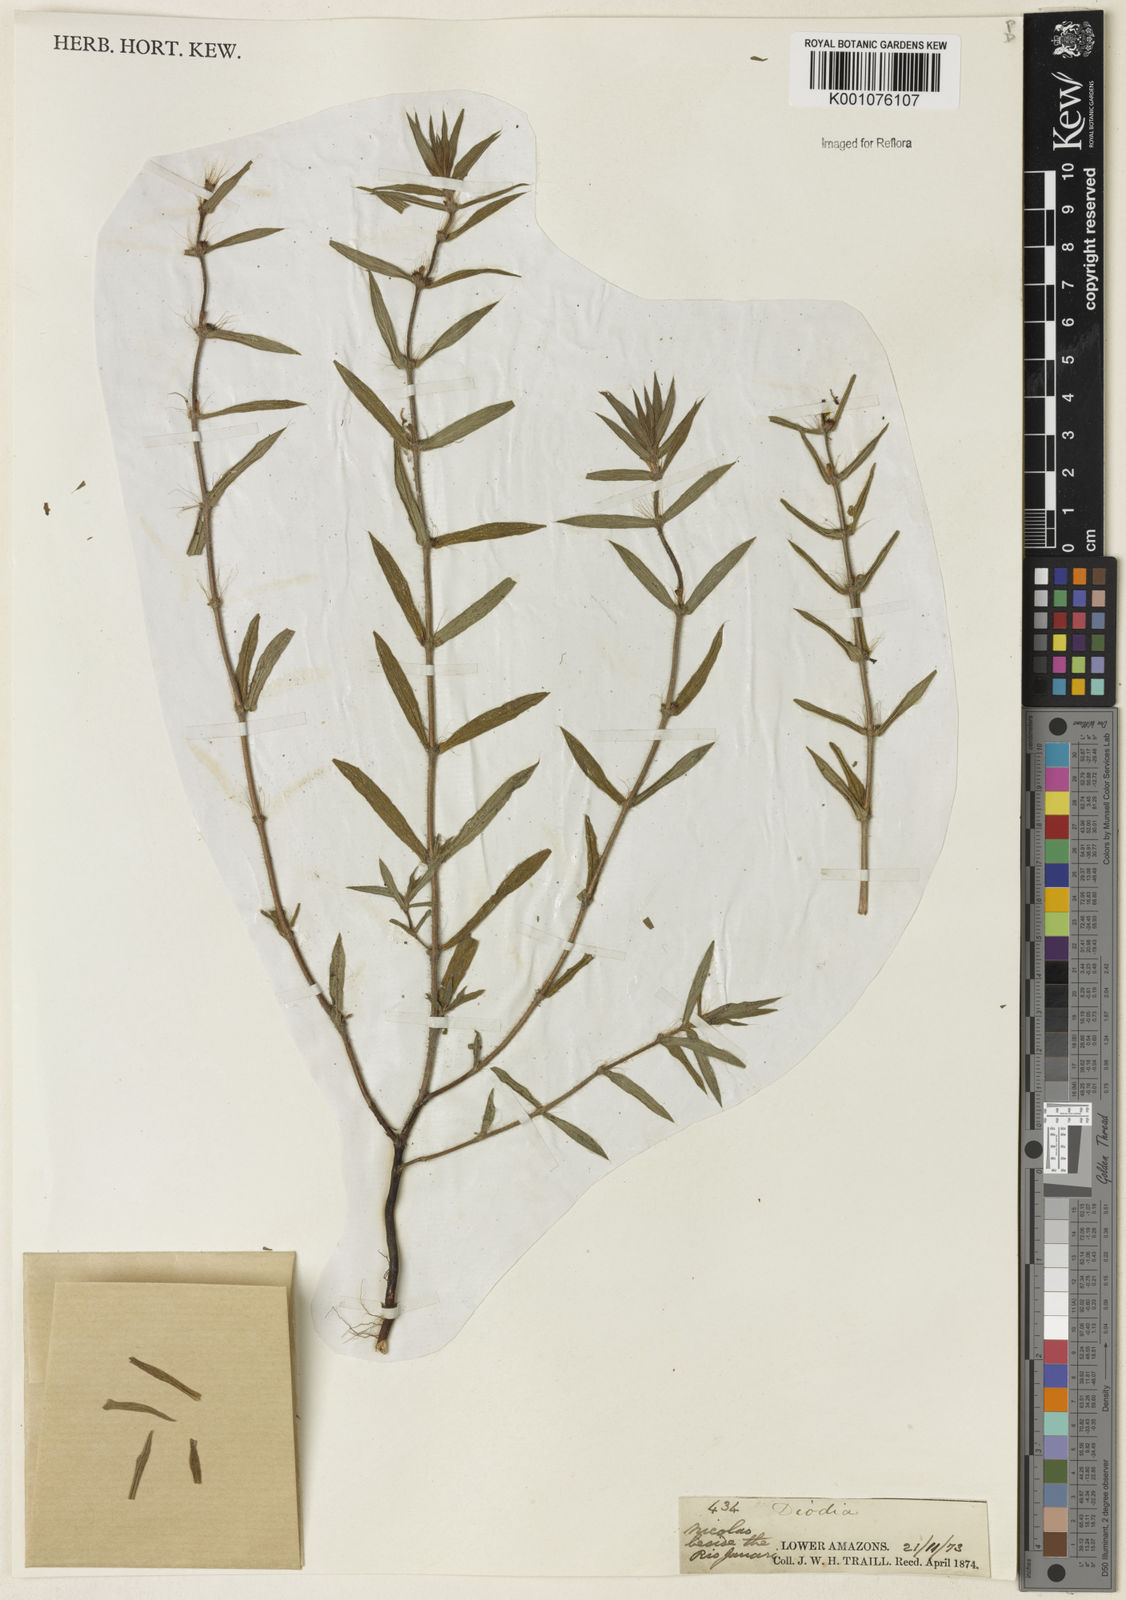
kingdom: Plantae
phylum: Tracheophyta
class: Magnoliopsida
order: Gentianales
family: Rubiaceae
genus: Hexasepalum
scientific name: Hexasepalum teres
